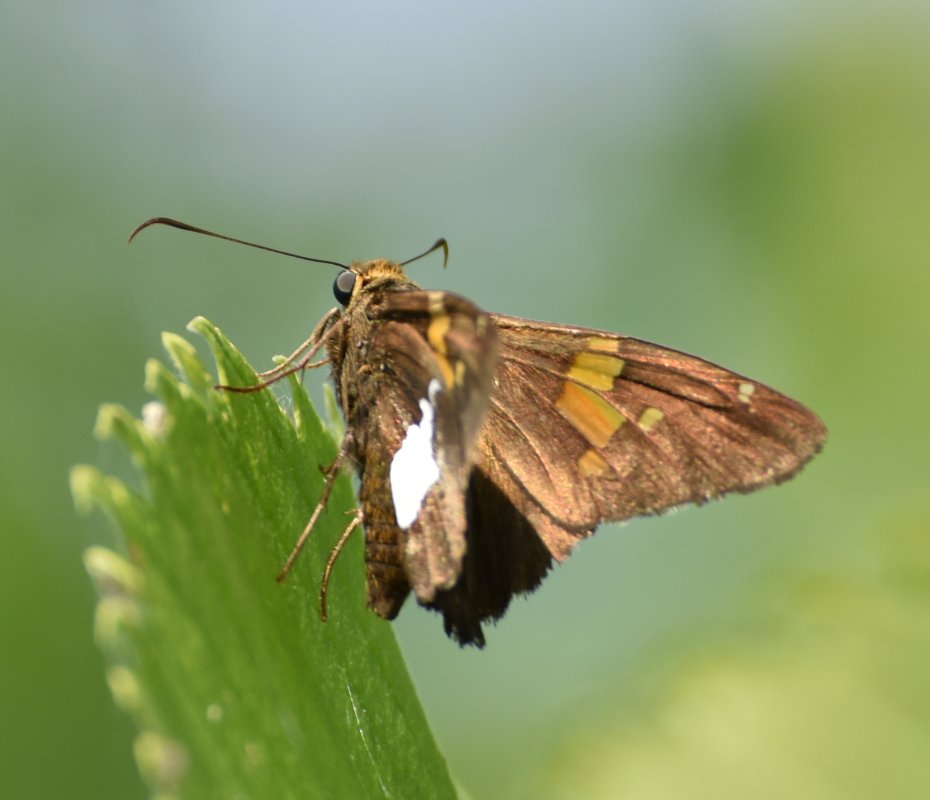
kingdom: Animalia
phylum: Arthropoda
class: Insecta
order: Lepidoptera
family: Hesperiidae
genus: Epargyreus
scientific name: Epargyreus clarus
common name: Silver-spotted Skipper
